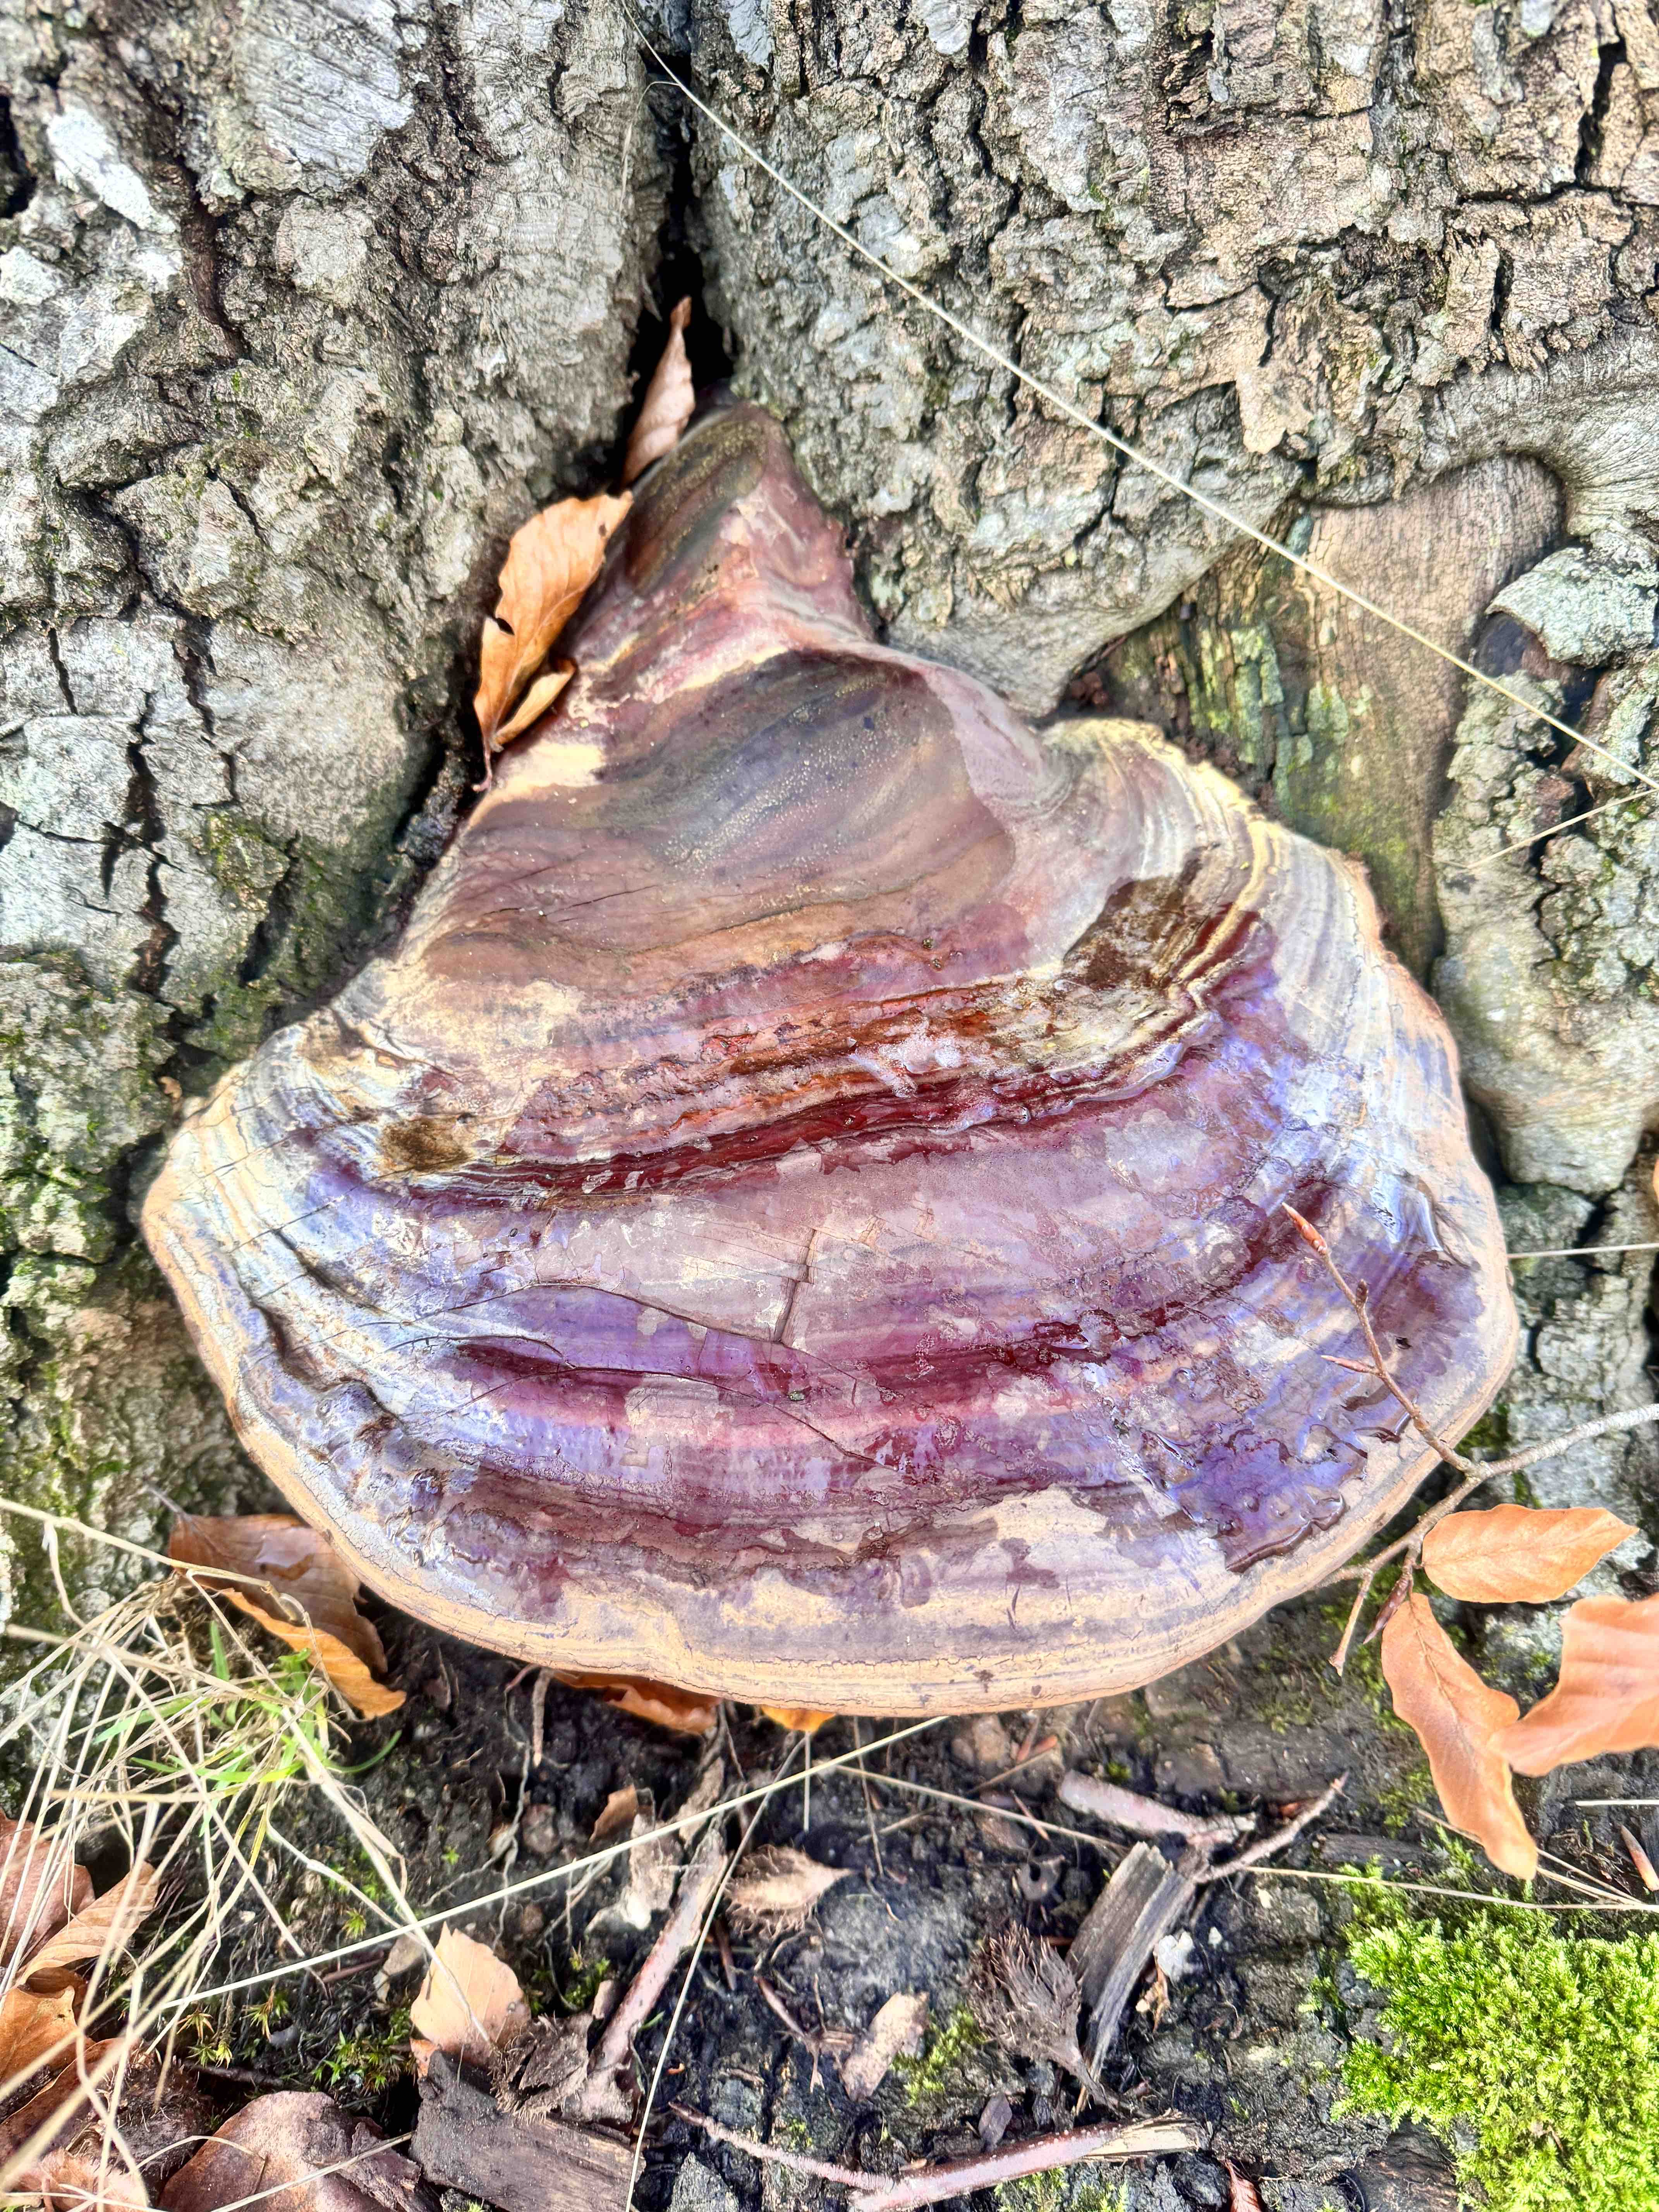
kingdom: Fungi
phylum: Basidiomycota
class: Agaricomycetes
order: Polyporales
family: Polyporaceae
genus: Ganoderma
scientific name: Ganoderma resinaceum
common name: gyldenbrun lakporesvamp
